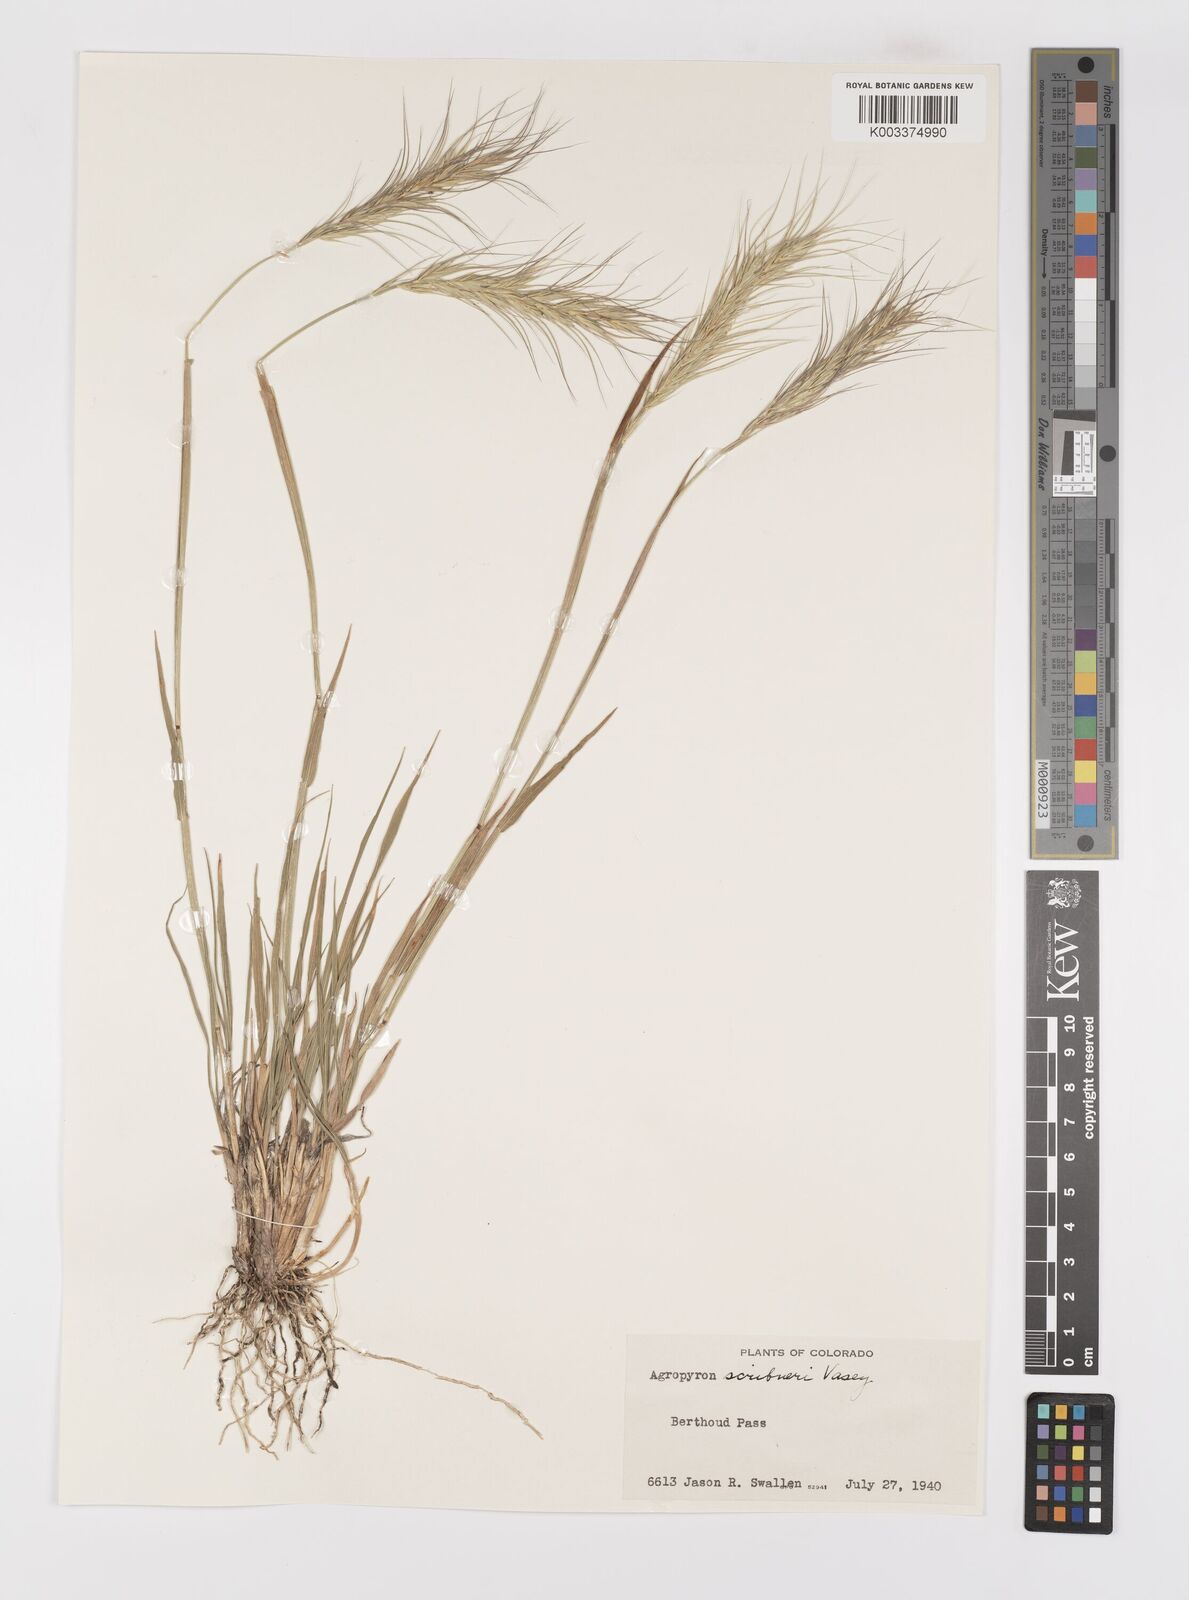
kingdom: Plantae
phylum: Tracheophyta
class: Liliopsida
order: Poales
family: Poaceae
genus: Elymus
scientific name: Elymus scribneri
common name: Scribner's wheatgrass
